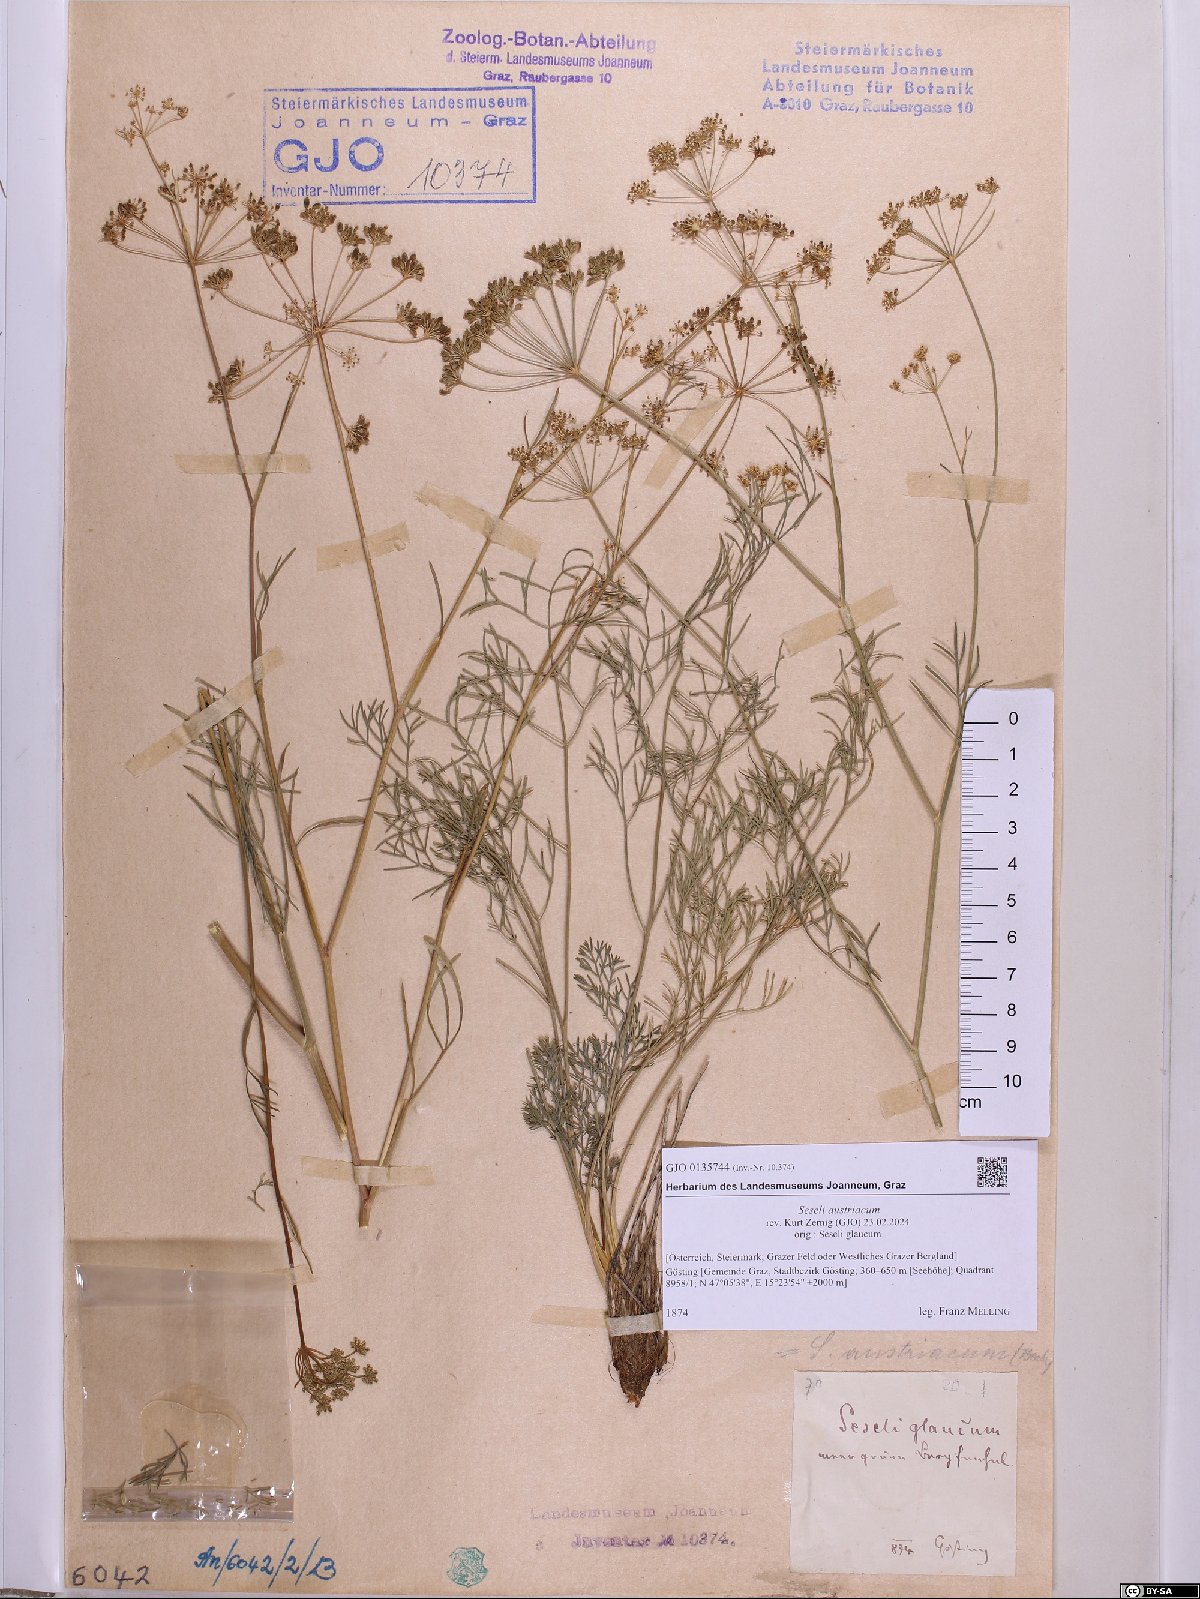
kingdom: Plantae
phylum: Tracheophyta
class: Magnoliopsida
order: Apiales
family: Apiaceae
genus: Seseli
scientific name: Seseli austriacum
